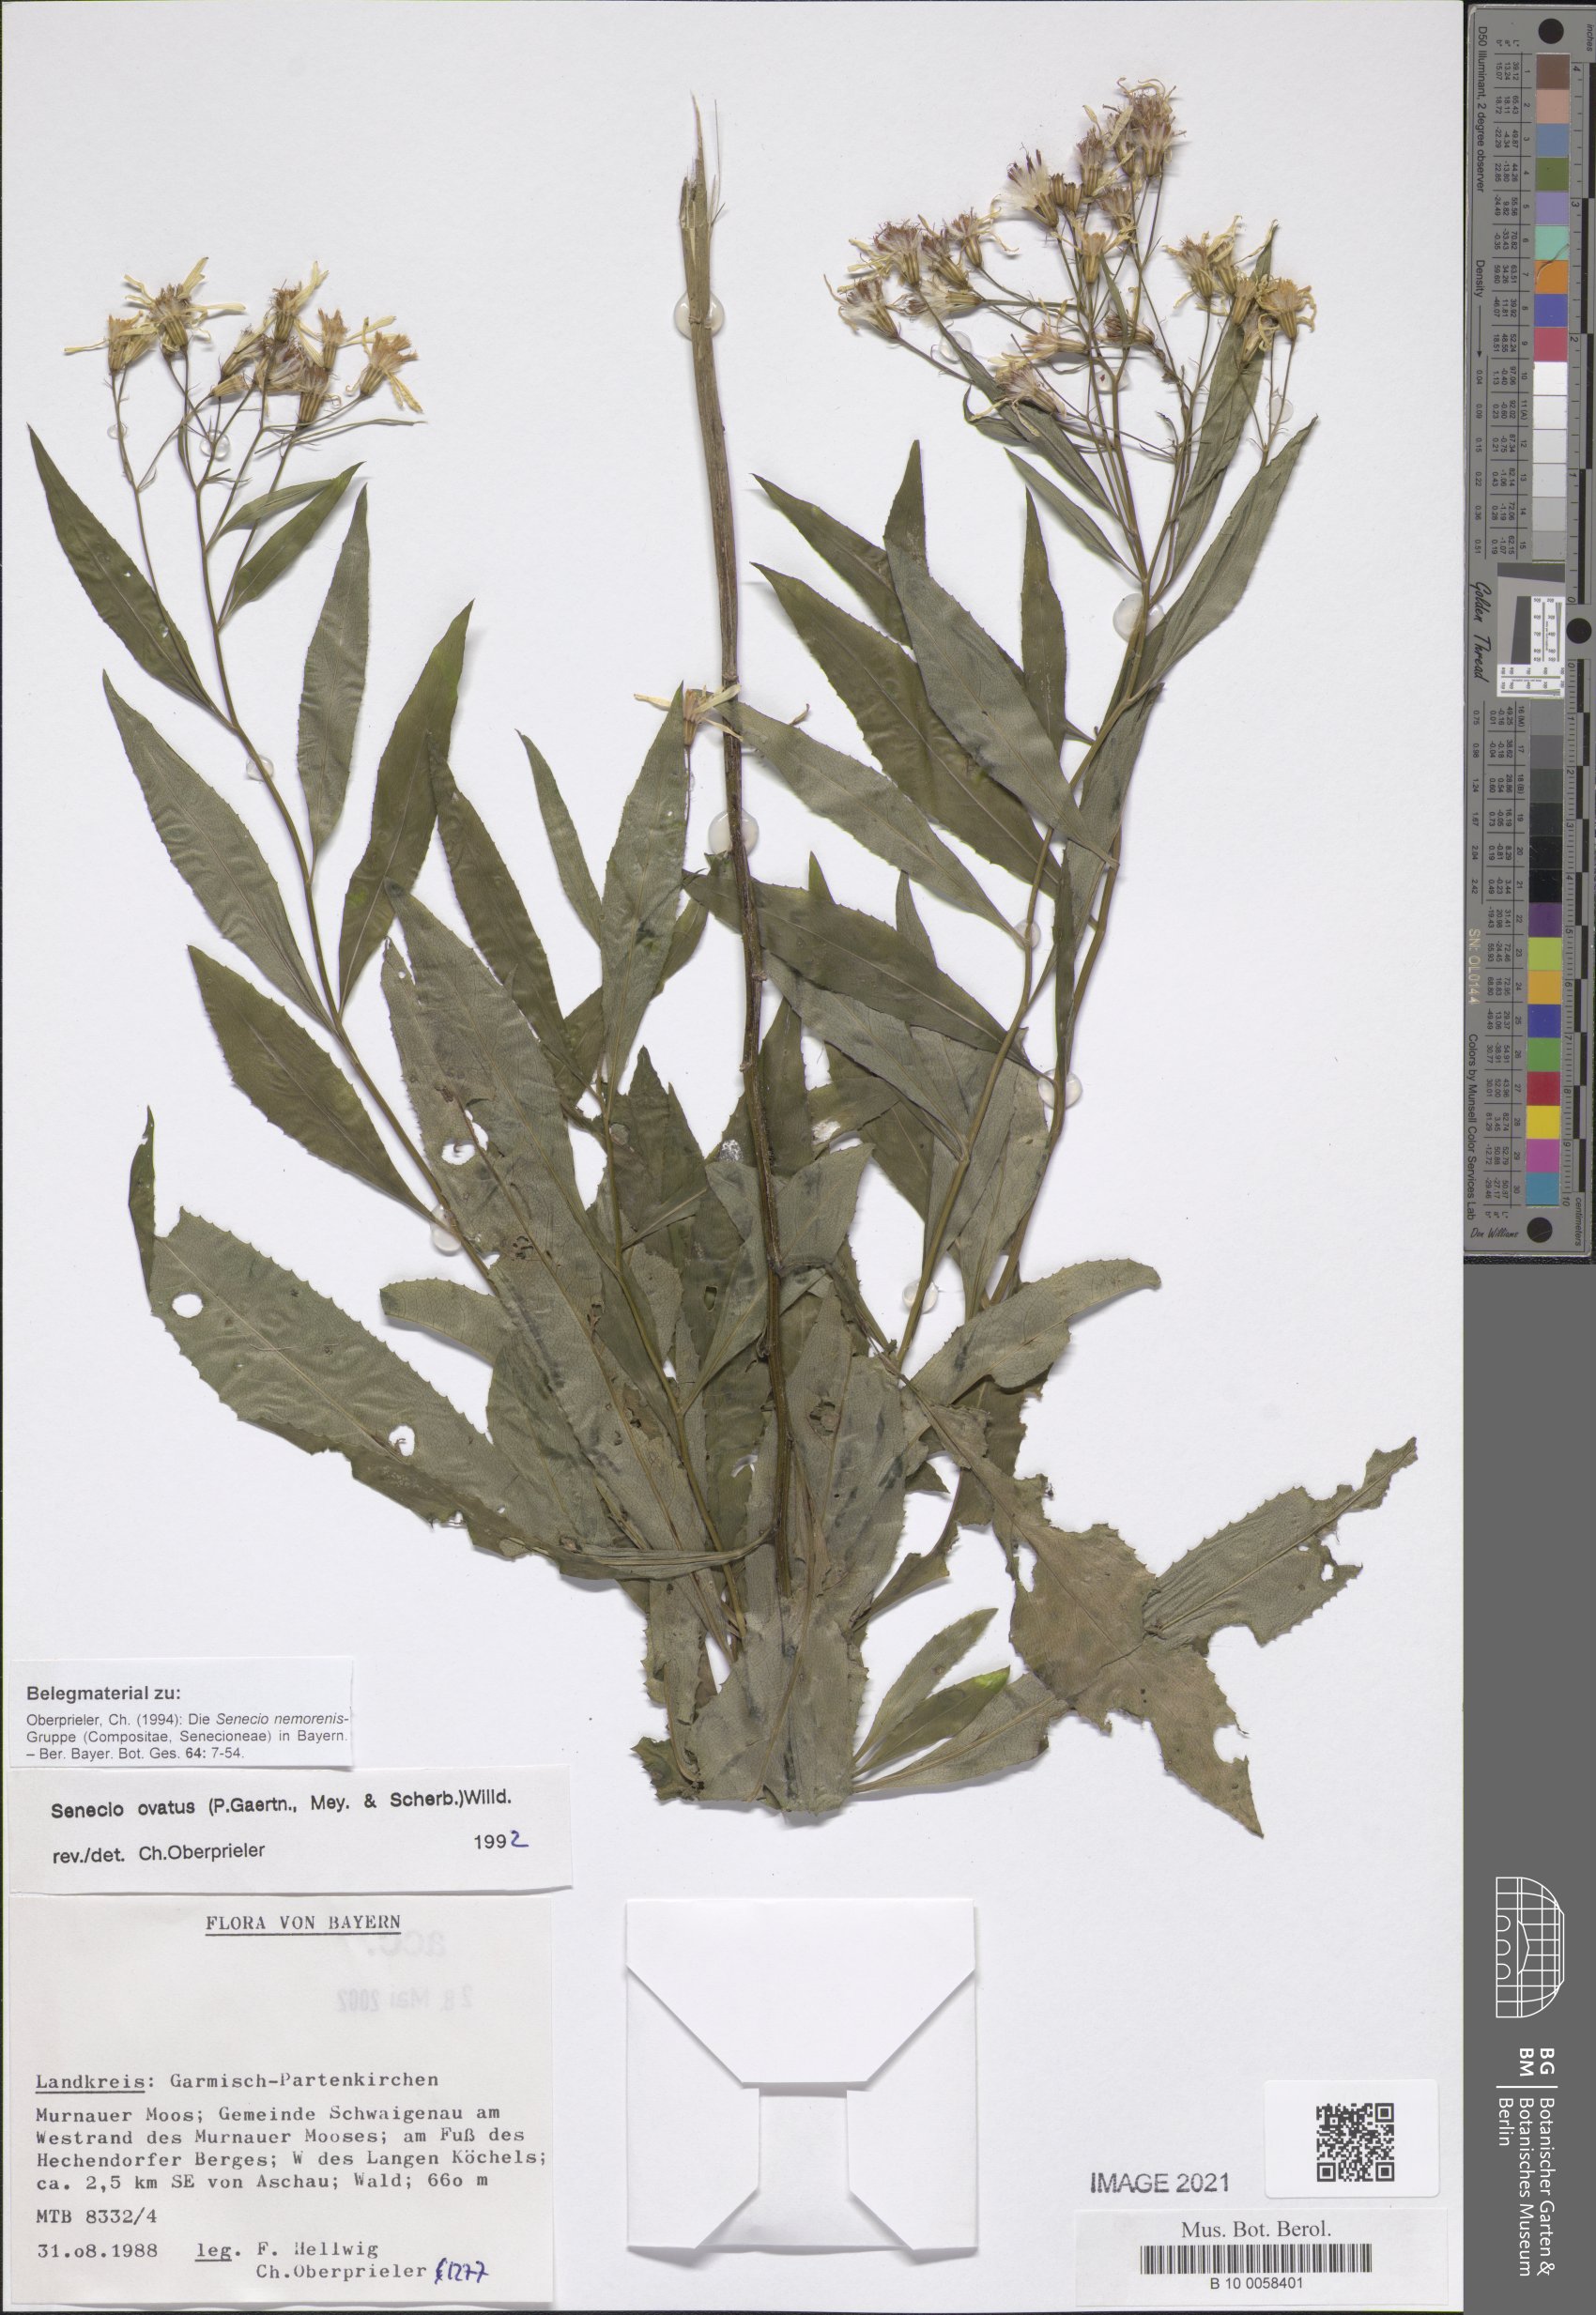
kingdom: Plantae
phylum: Tracheophyta
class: Magnoliopsida
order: Asterales
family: Asteraceae
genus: Senecio
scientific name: Senecio ovatus
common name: Wood ragwort
